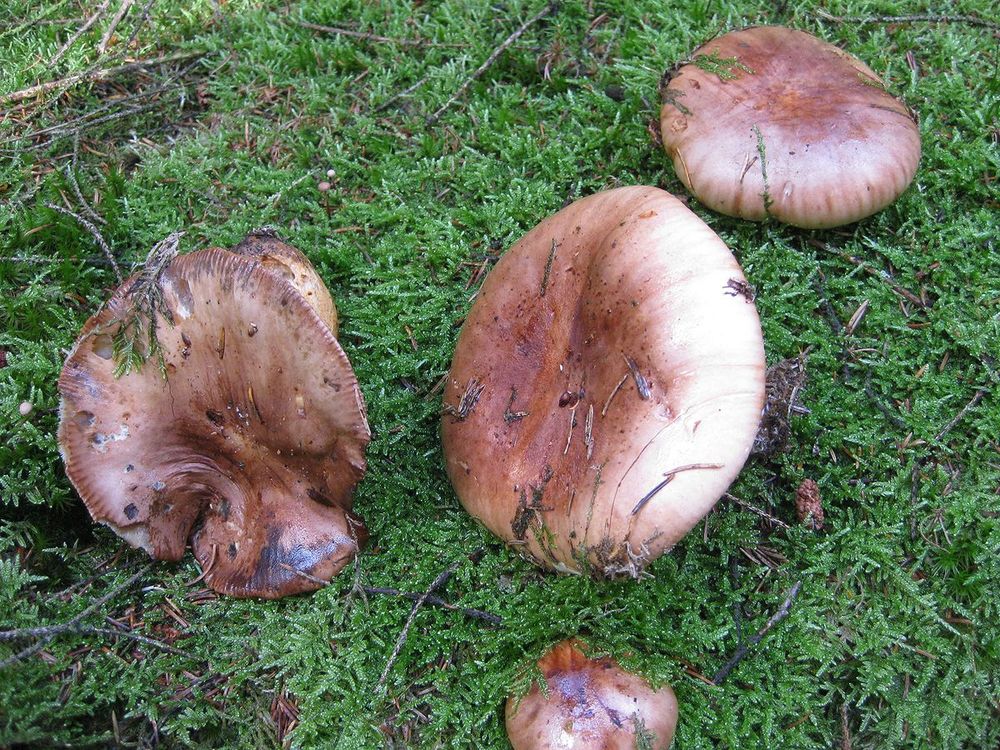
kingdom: Fungi
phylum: Basidiomycota
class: Agaricomycetes
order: Agaricales
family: Tricholomataceae
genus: Tricholoma
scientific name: Tricholoma stans
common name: stolt ridderhat
